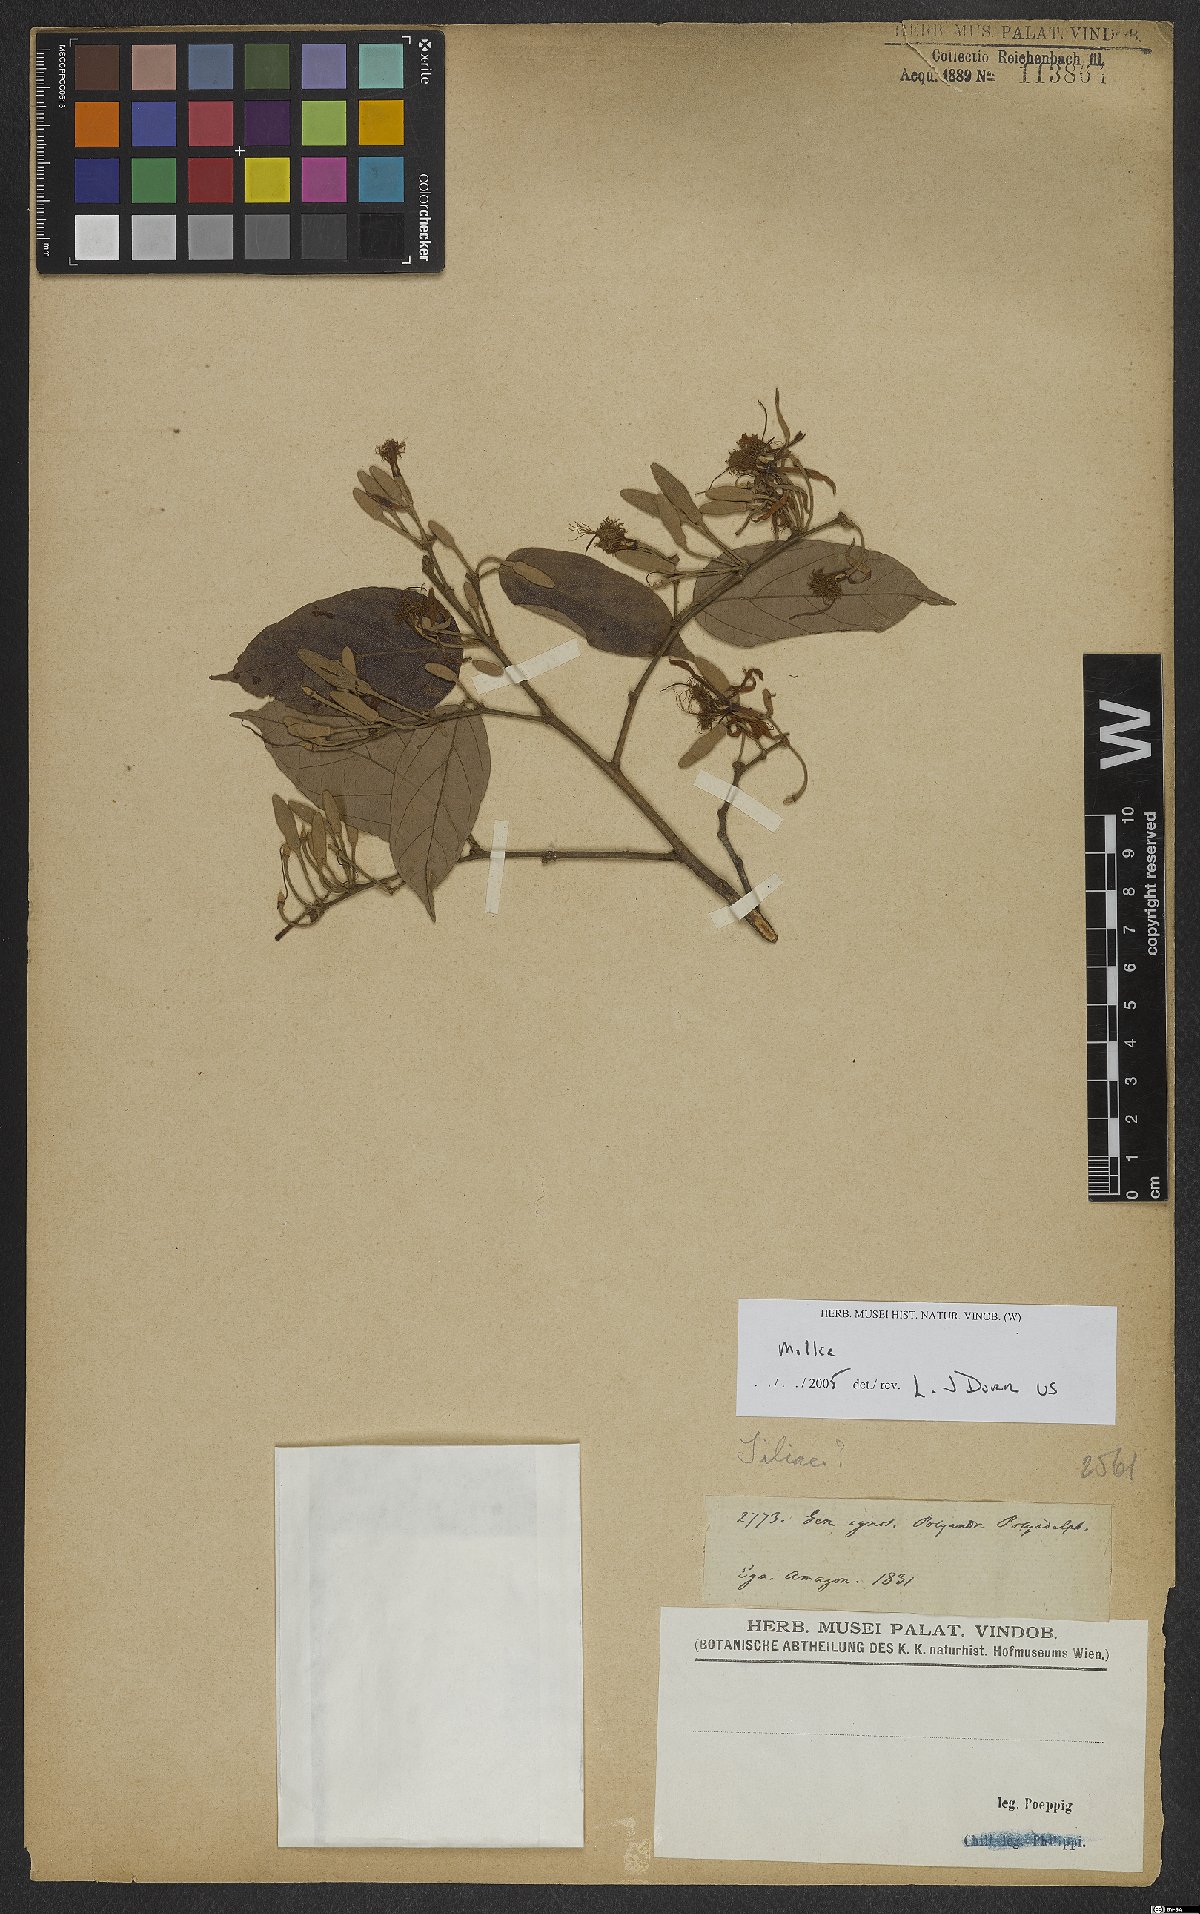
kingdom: Plantae
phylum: Tracheophyta
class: Magnoliopsida
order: Malvales
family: Malvaceae
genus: Mollia
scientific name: Mollia
